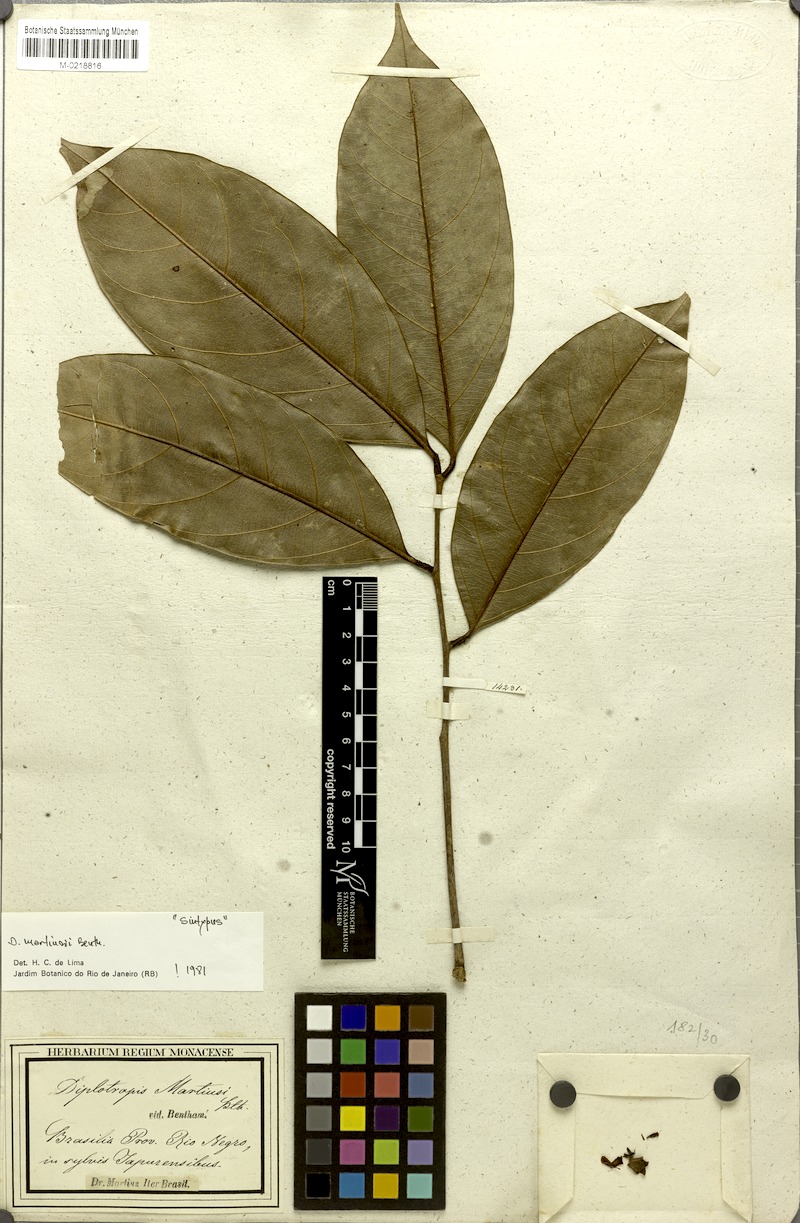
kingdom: Plantae
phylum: Tracheophyta
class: Magnoliopsida
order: Fabales
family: Fabaceae
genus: Diplotropis
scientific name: Diplotropis martiusii
